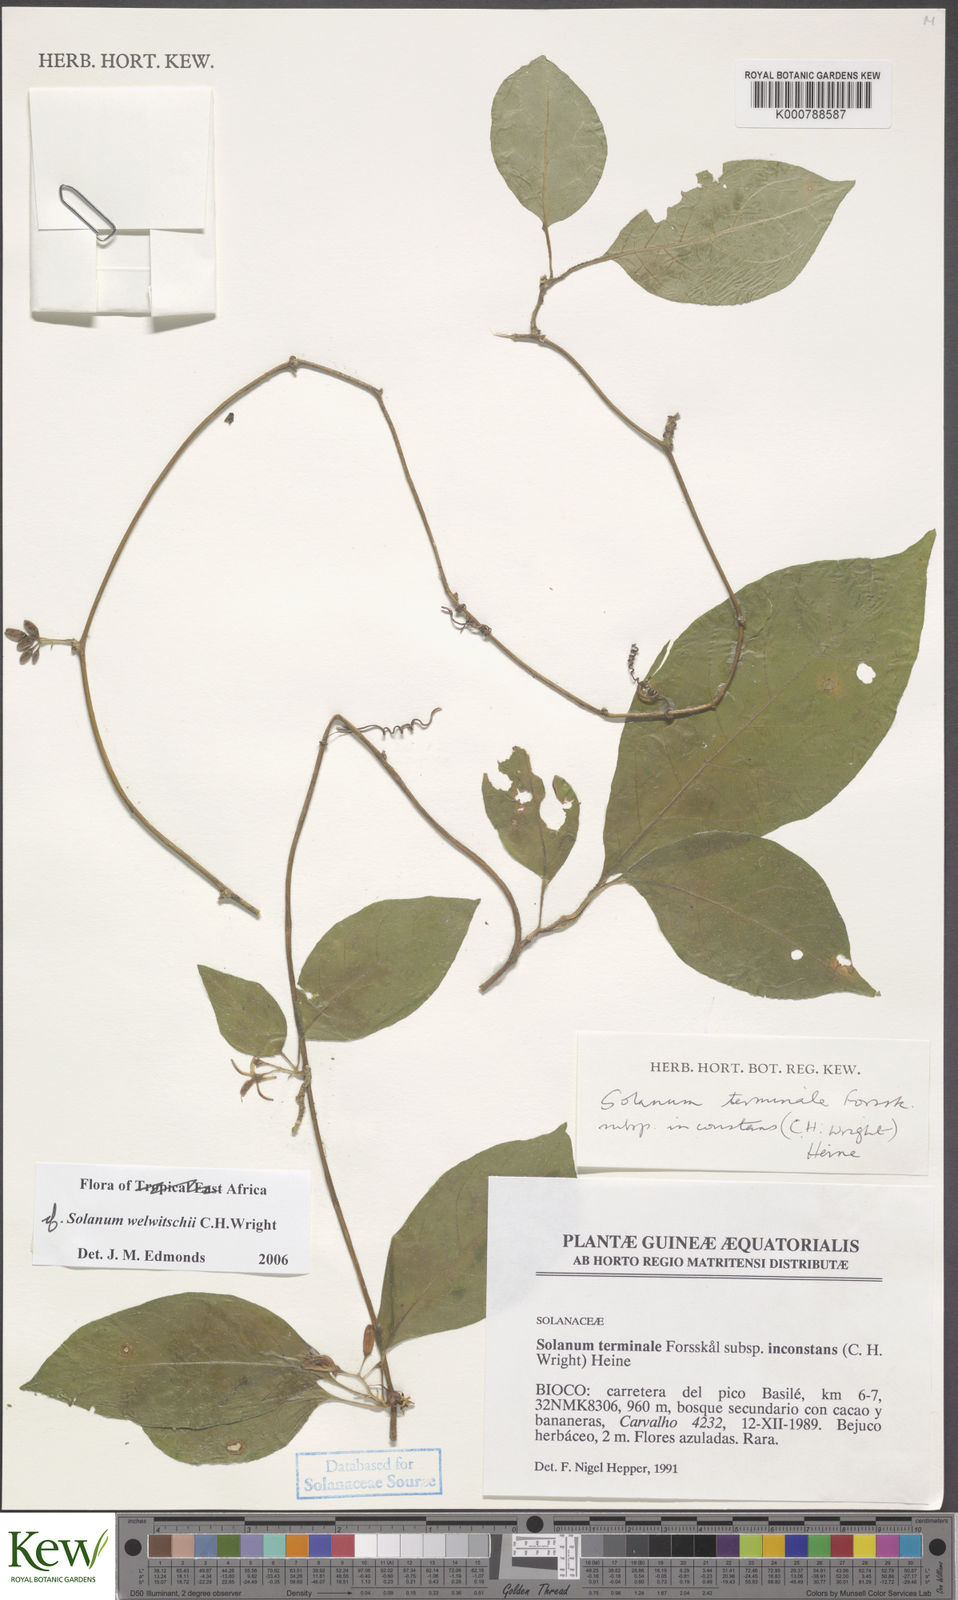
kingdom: Plantae
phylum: Tracheophyta
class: Magnoliopsida
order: Solanales
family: Solanaceae
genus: Solanum
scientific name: Solanum terminale
